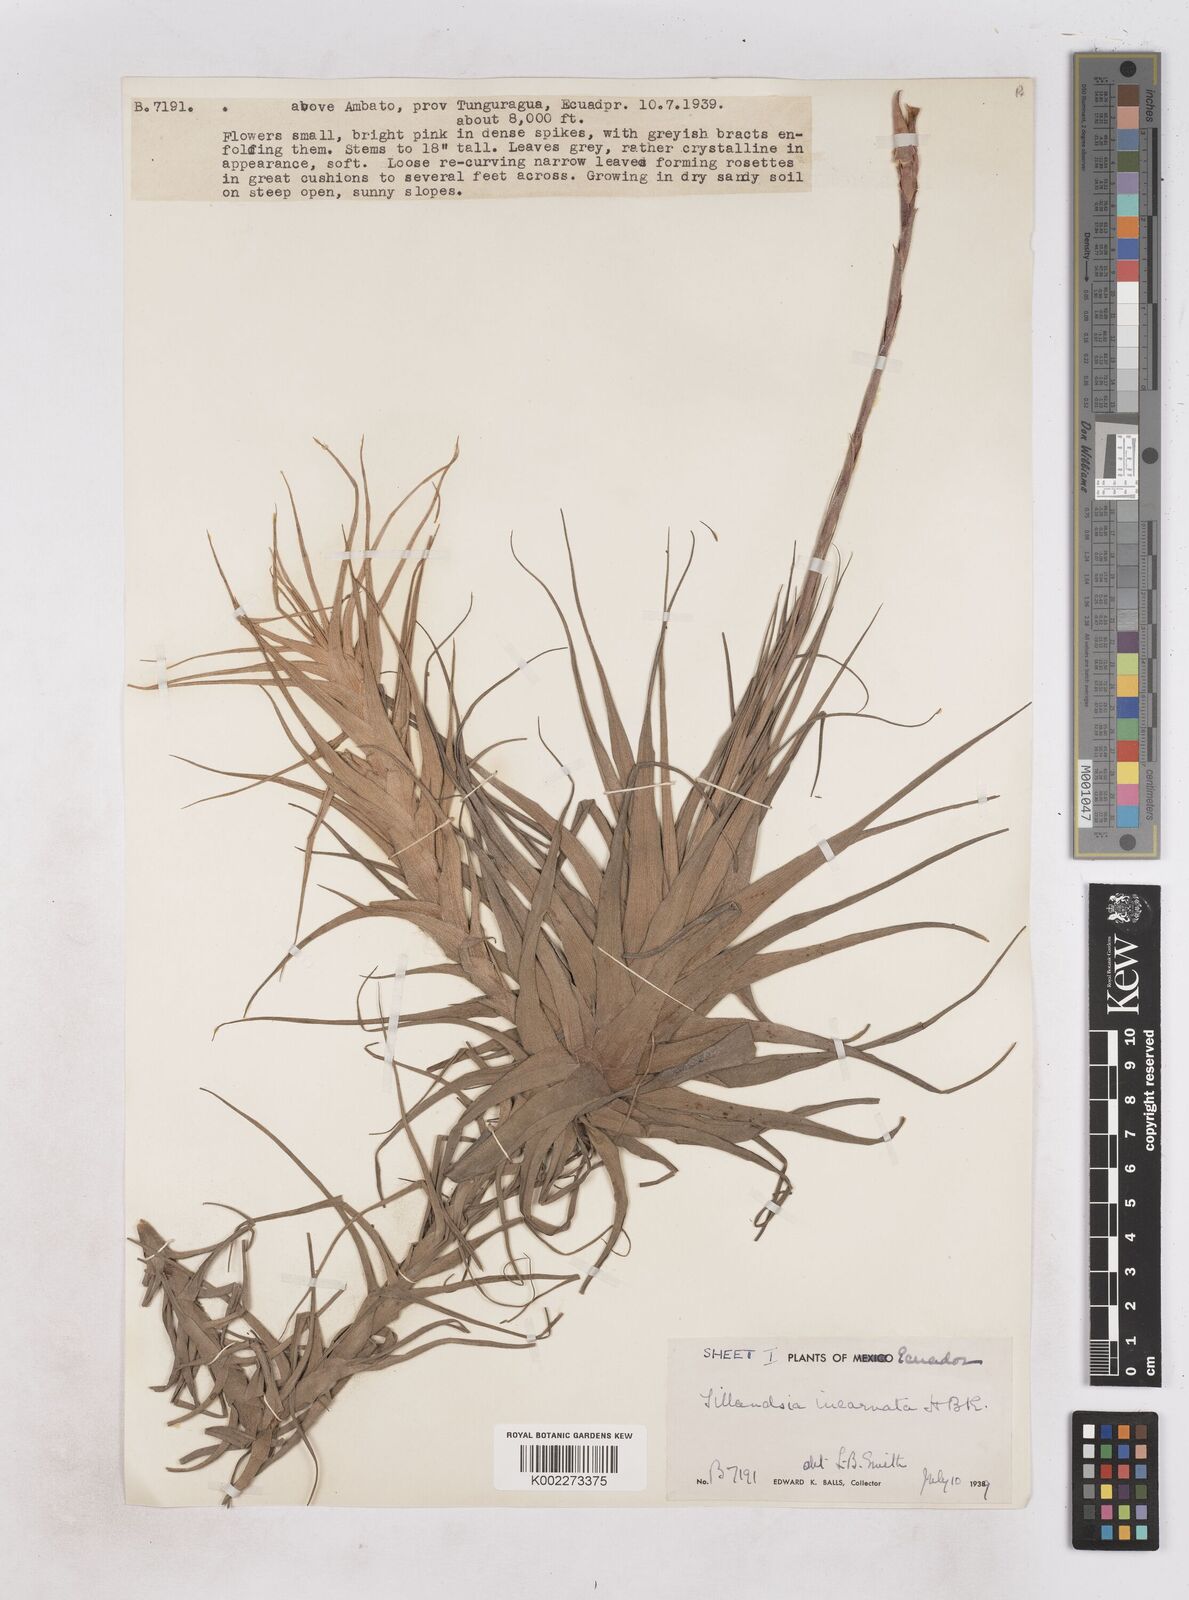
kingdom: Plantae
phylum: Tracheophyta
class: Liliopsida
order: Poales
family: Bromeliaceae
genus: Tillandsia
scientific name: Tillandsia incarnata
